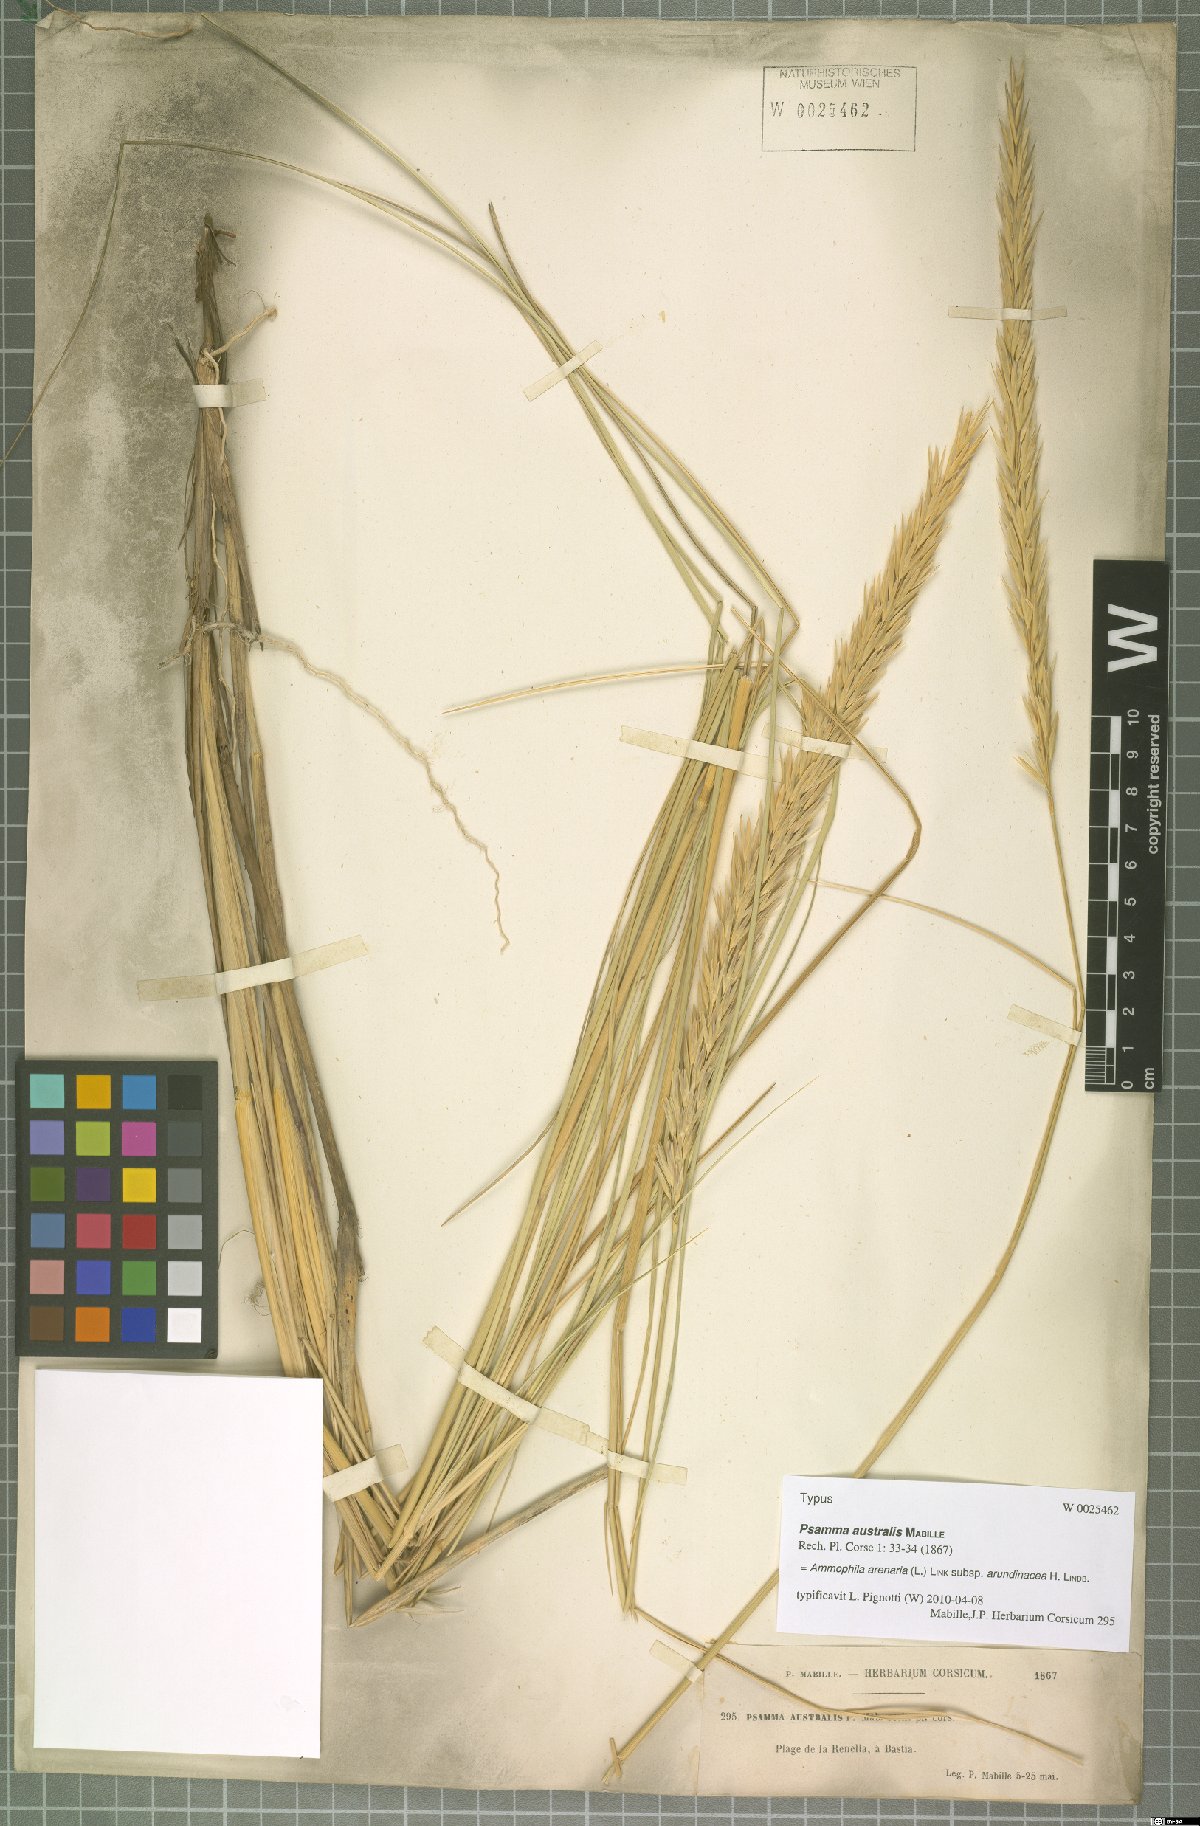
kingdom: Plantae
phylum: Tracheophyta
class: Liliopsida
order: Poales
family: Poaceae
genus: Calamagrostis
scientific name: Calamagrostis arenaria
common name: European beachgrass
